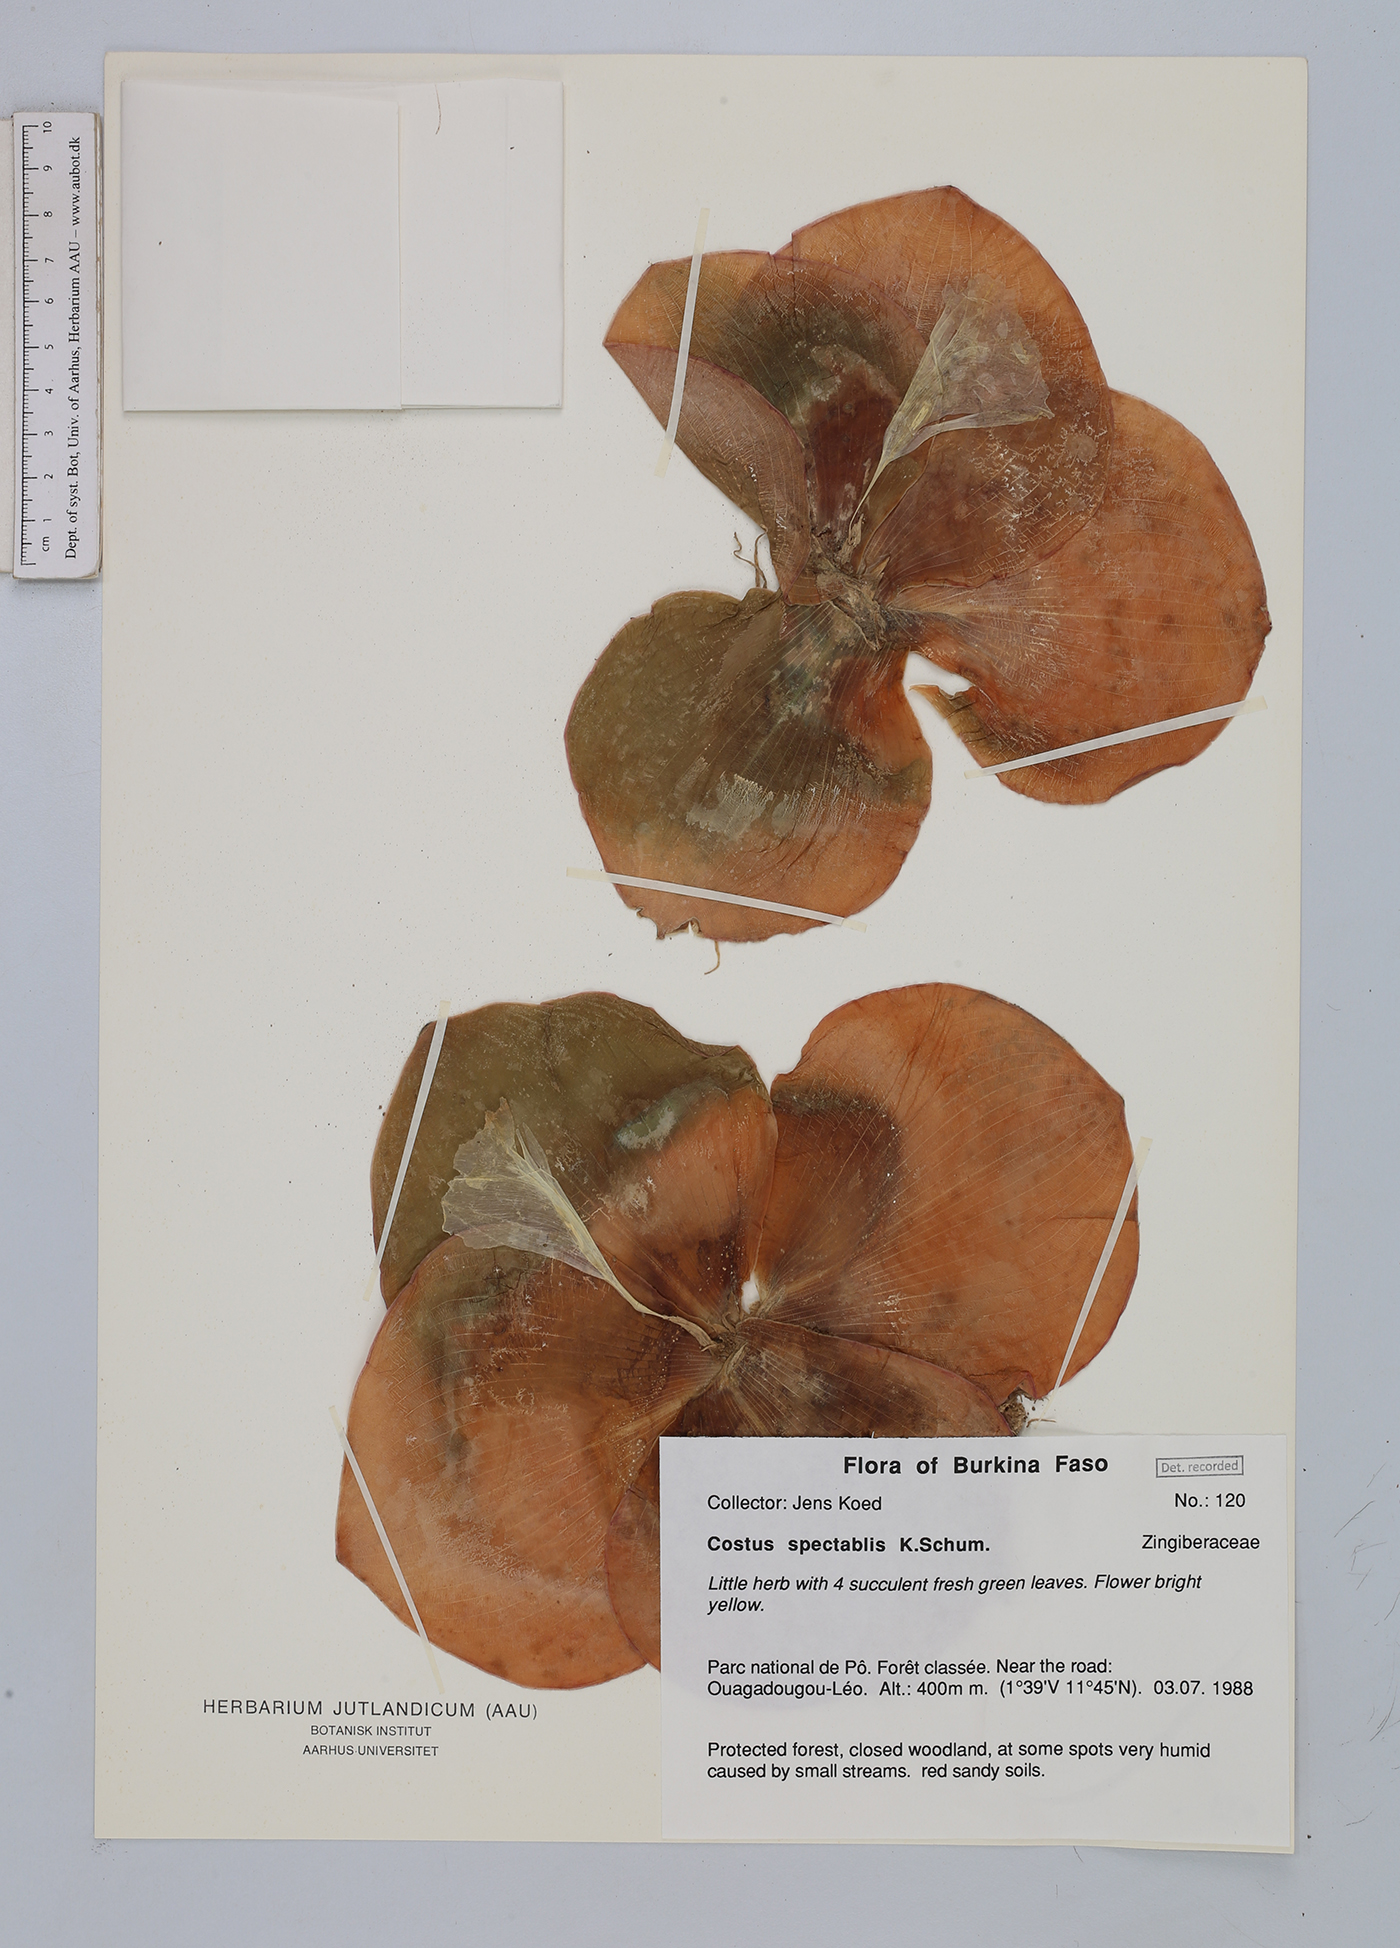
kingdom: Plantae
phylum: Tracheophyta
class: Liliopsida
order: Zingiberales
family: Costaceae
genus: Costus
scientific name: Costus spectabilis
